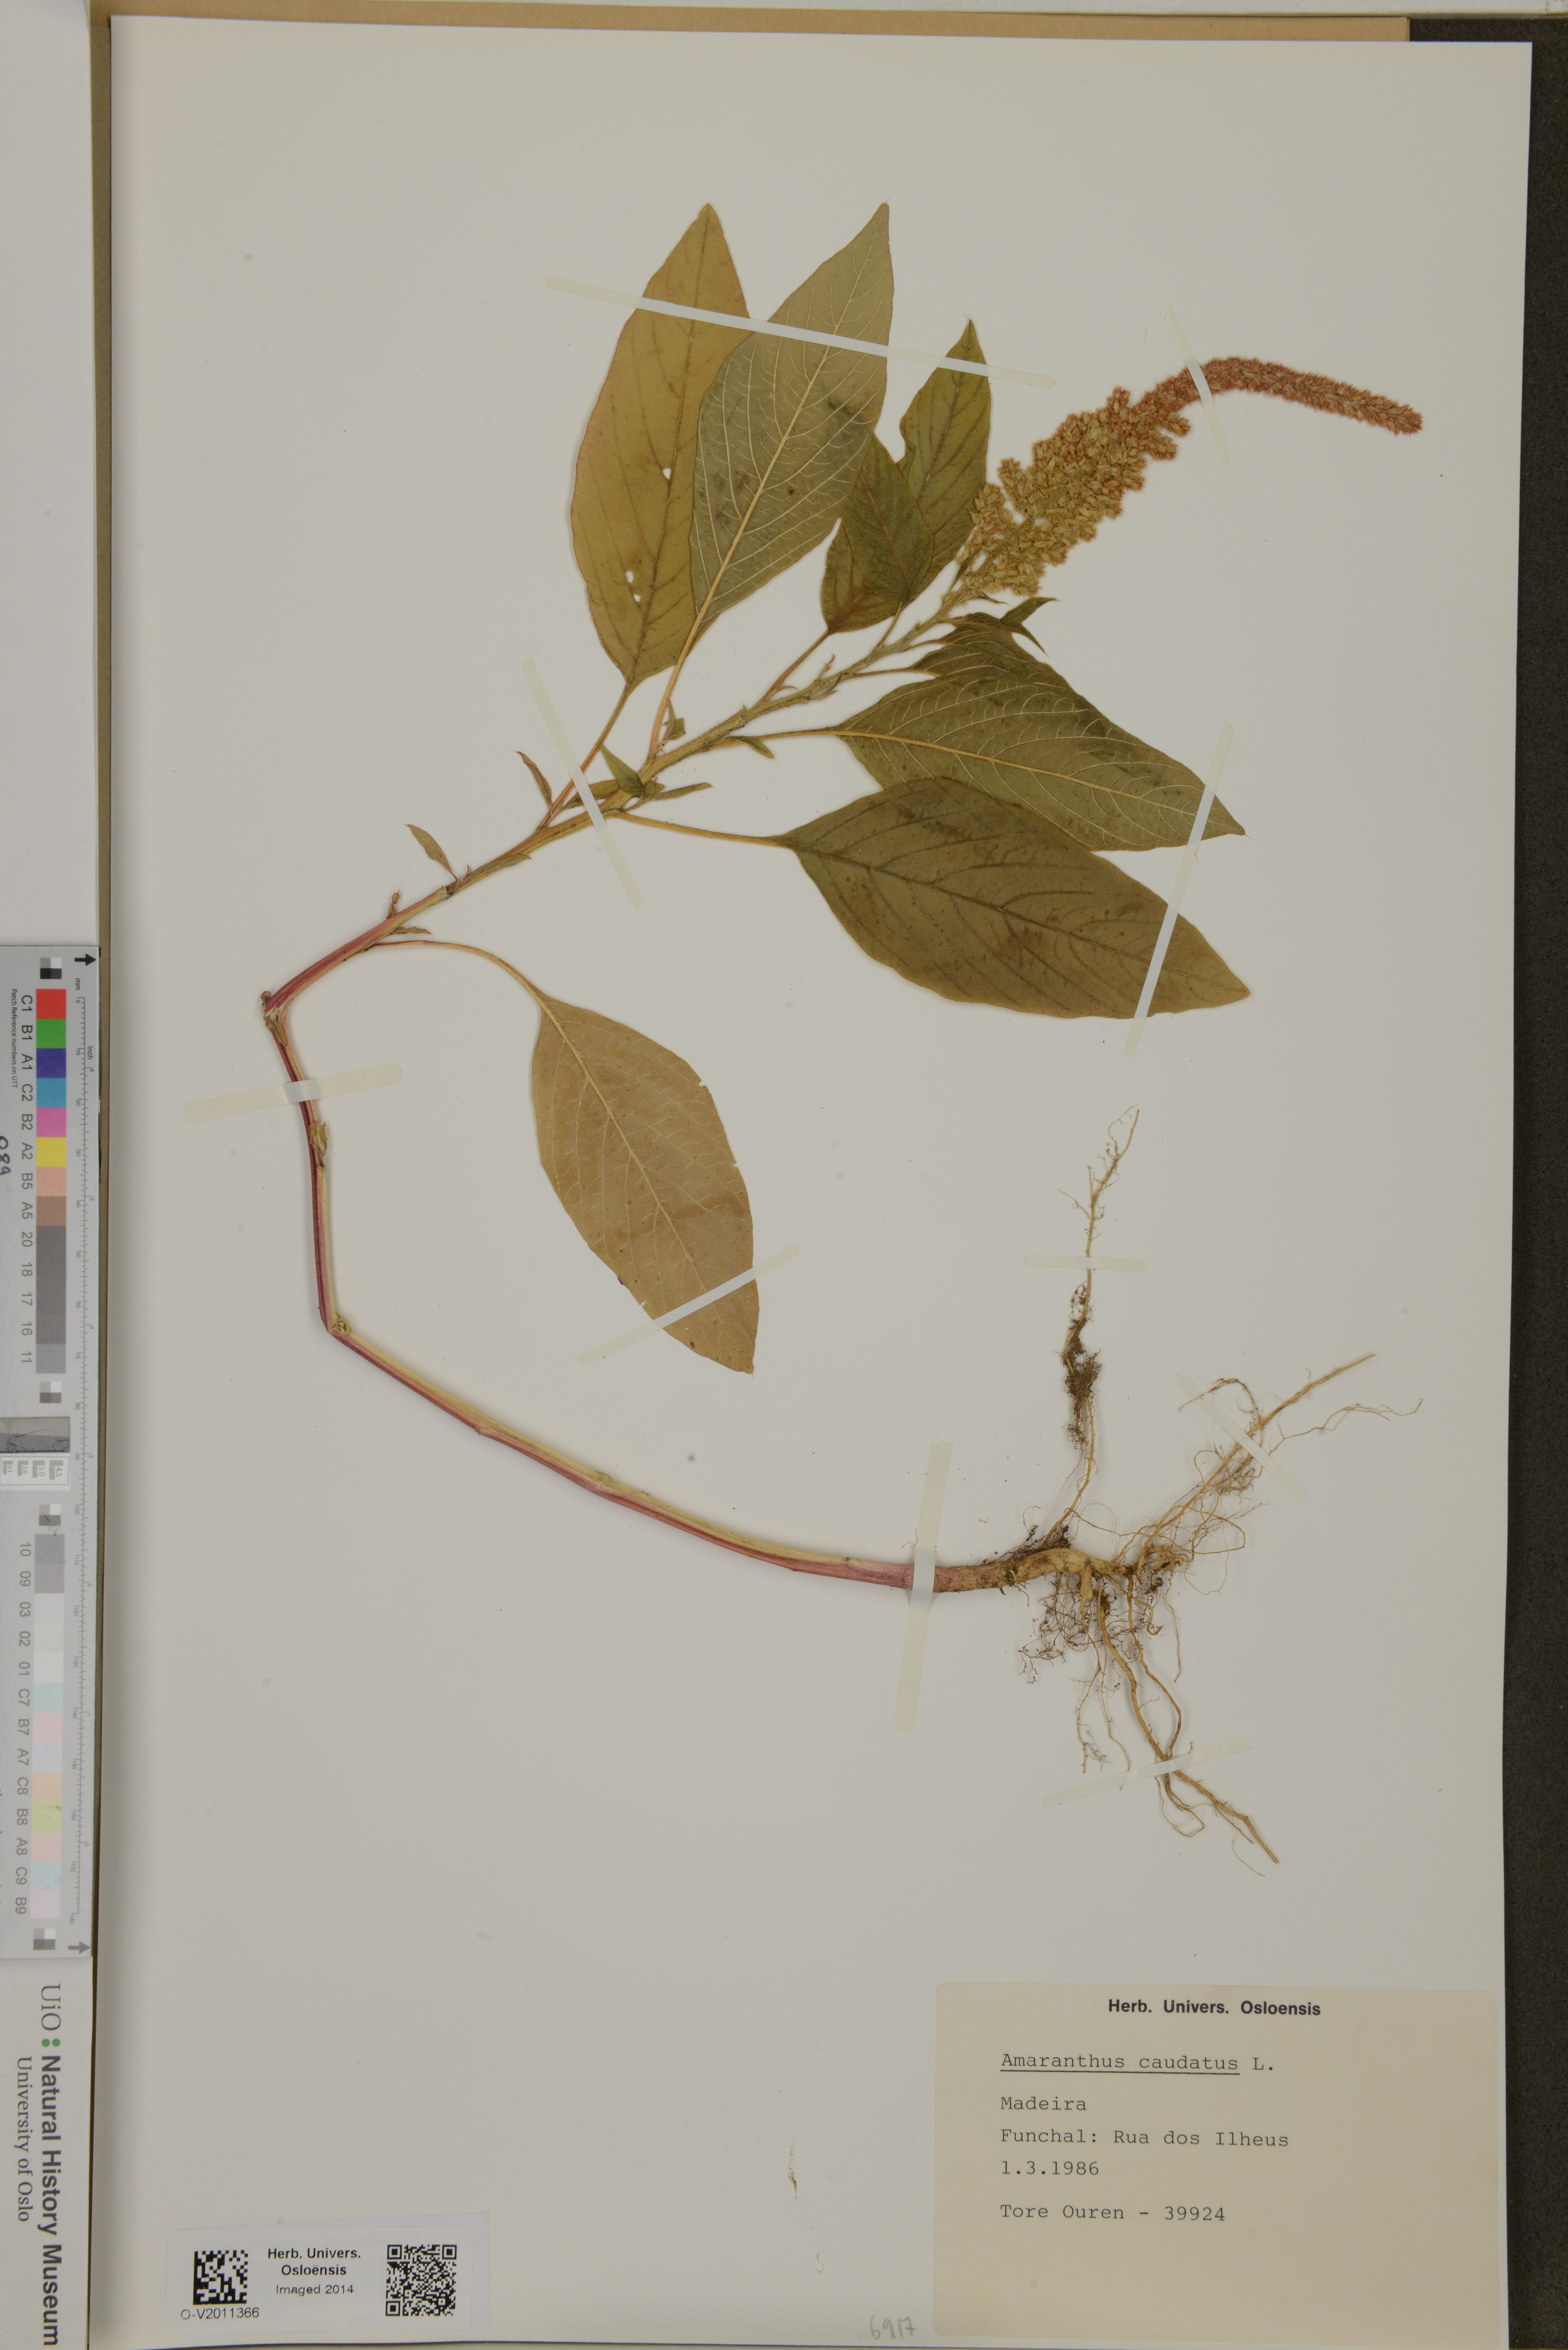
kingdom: Plantae
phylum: Tracheophyta
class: Magnoliopsida
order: Caryophyllales
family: Amaranthaceae
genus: Amaranthus
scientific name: Amaranthus caudatus
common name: Love-lies-bleeding
